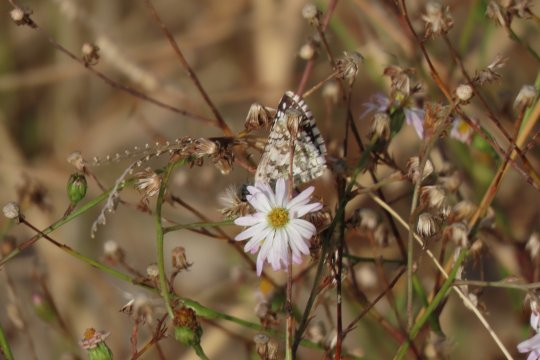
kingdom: Animalia
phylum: Arthropoda
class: Insecta
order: Lepidoptera
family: Hesperiidae
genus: Pyrgus
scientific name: Pyrgus communis
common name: White Checkered-Skipper
